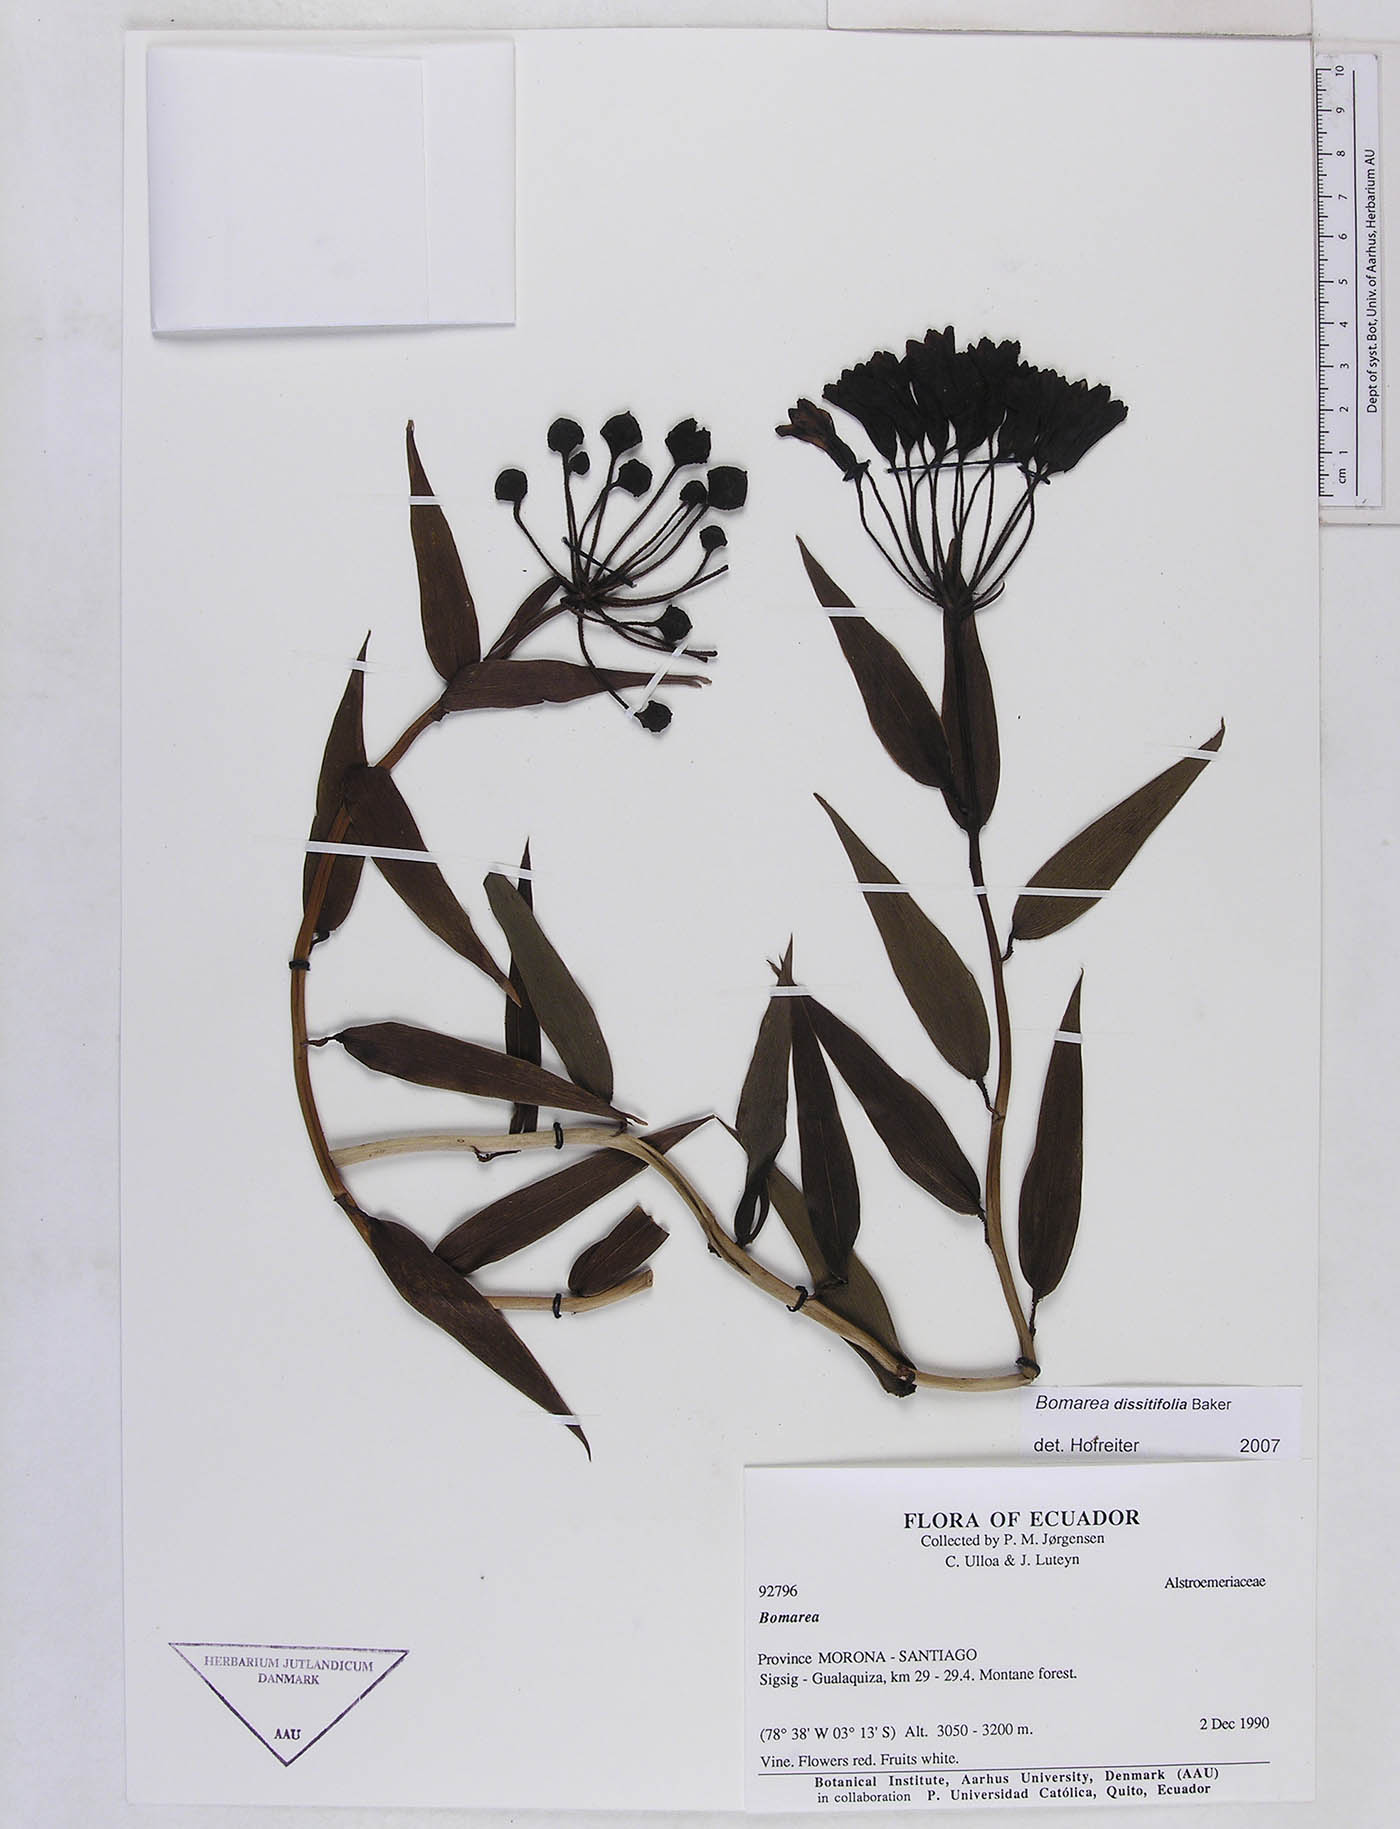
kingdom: Plantae
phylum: Tracheophyta
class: Liliopsida
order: Liliales
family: Alstroemeriaceae
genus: Bomarea
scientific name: Bomarea
